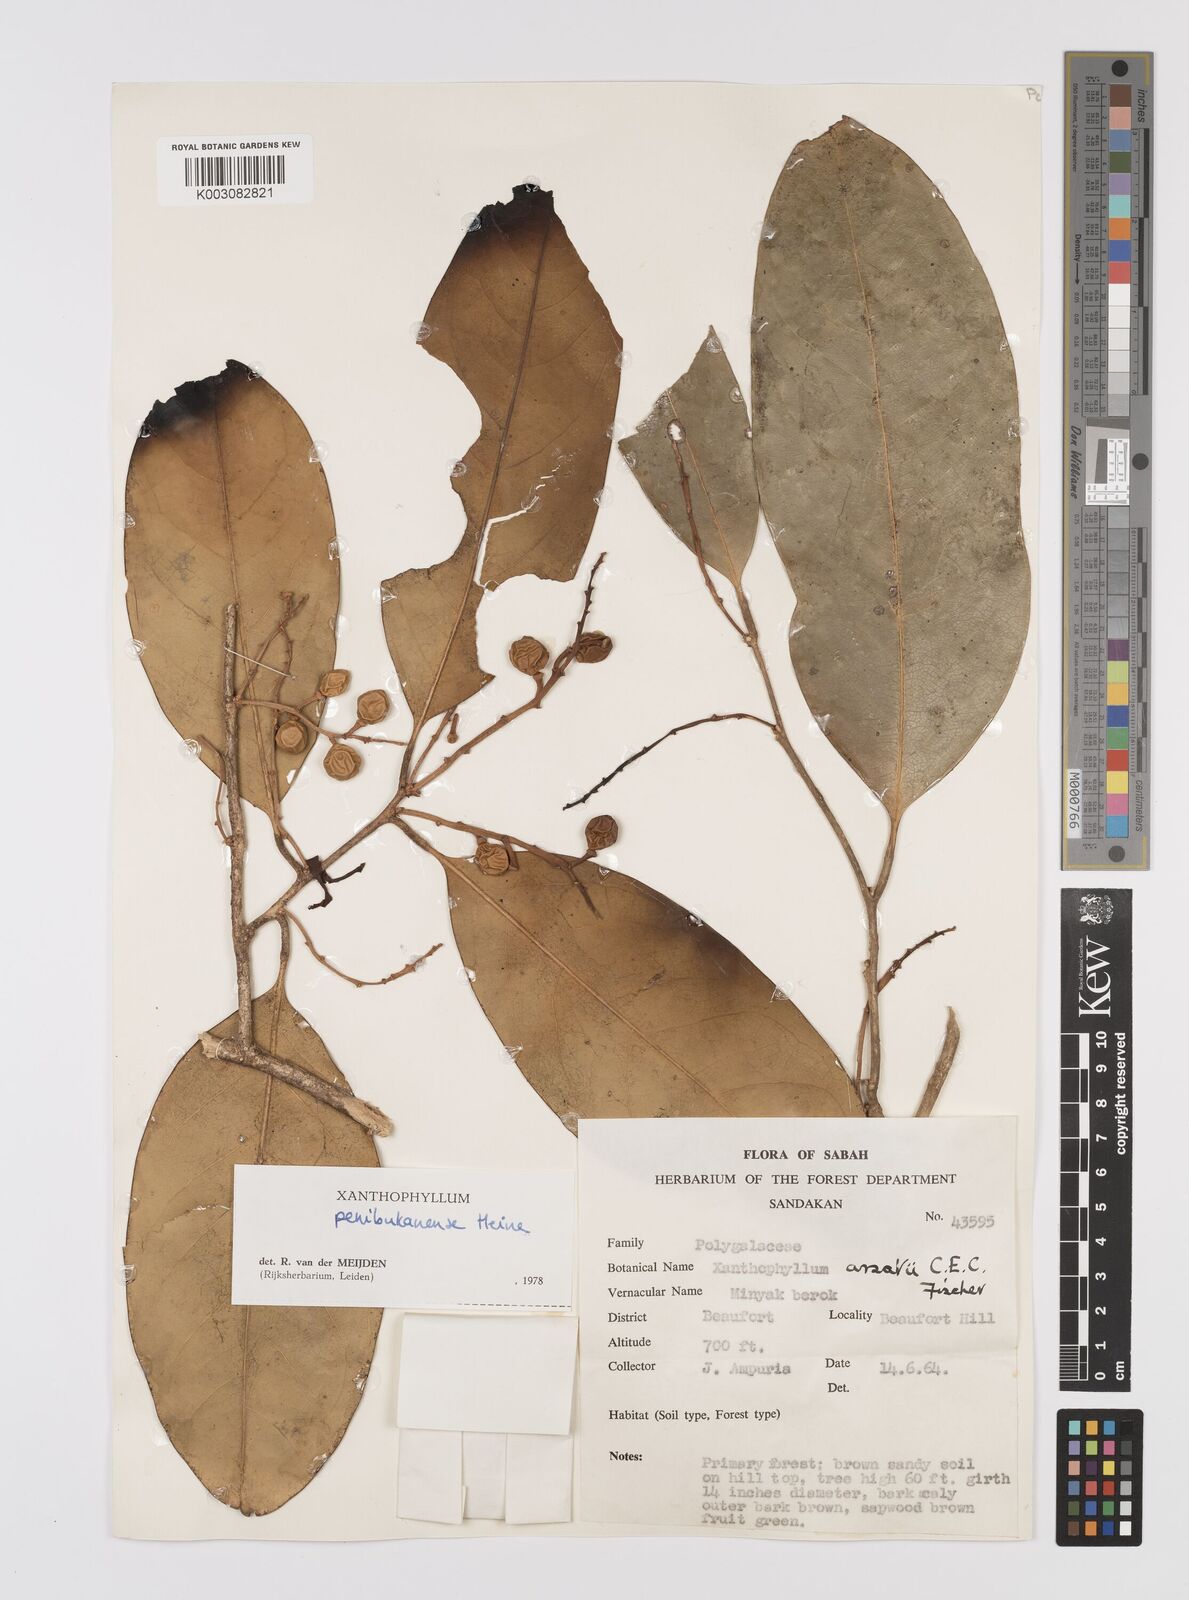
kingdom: Plantae
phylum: Tracheophyta
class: Magnoliopsida
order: Fabales
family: Polygalaceae
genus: Xanthophyllum
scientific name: Xanthophyllum penibukanense
